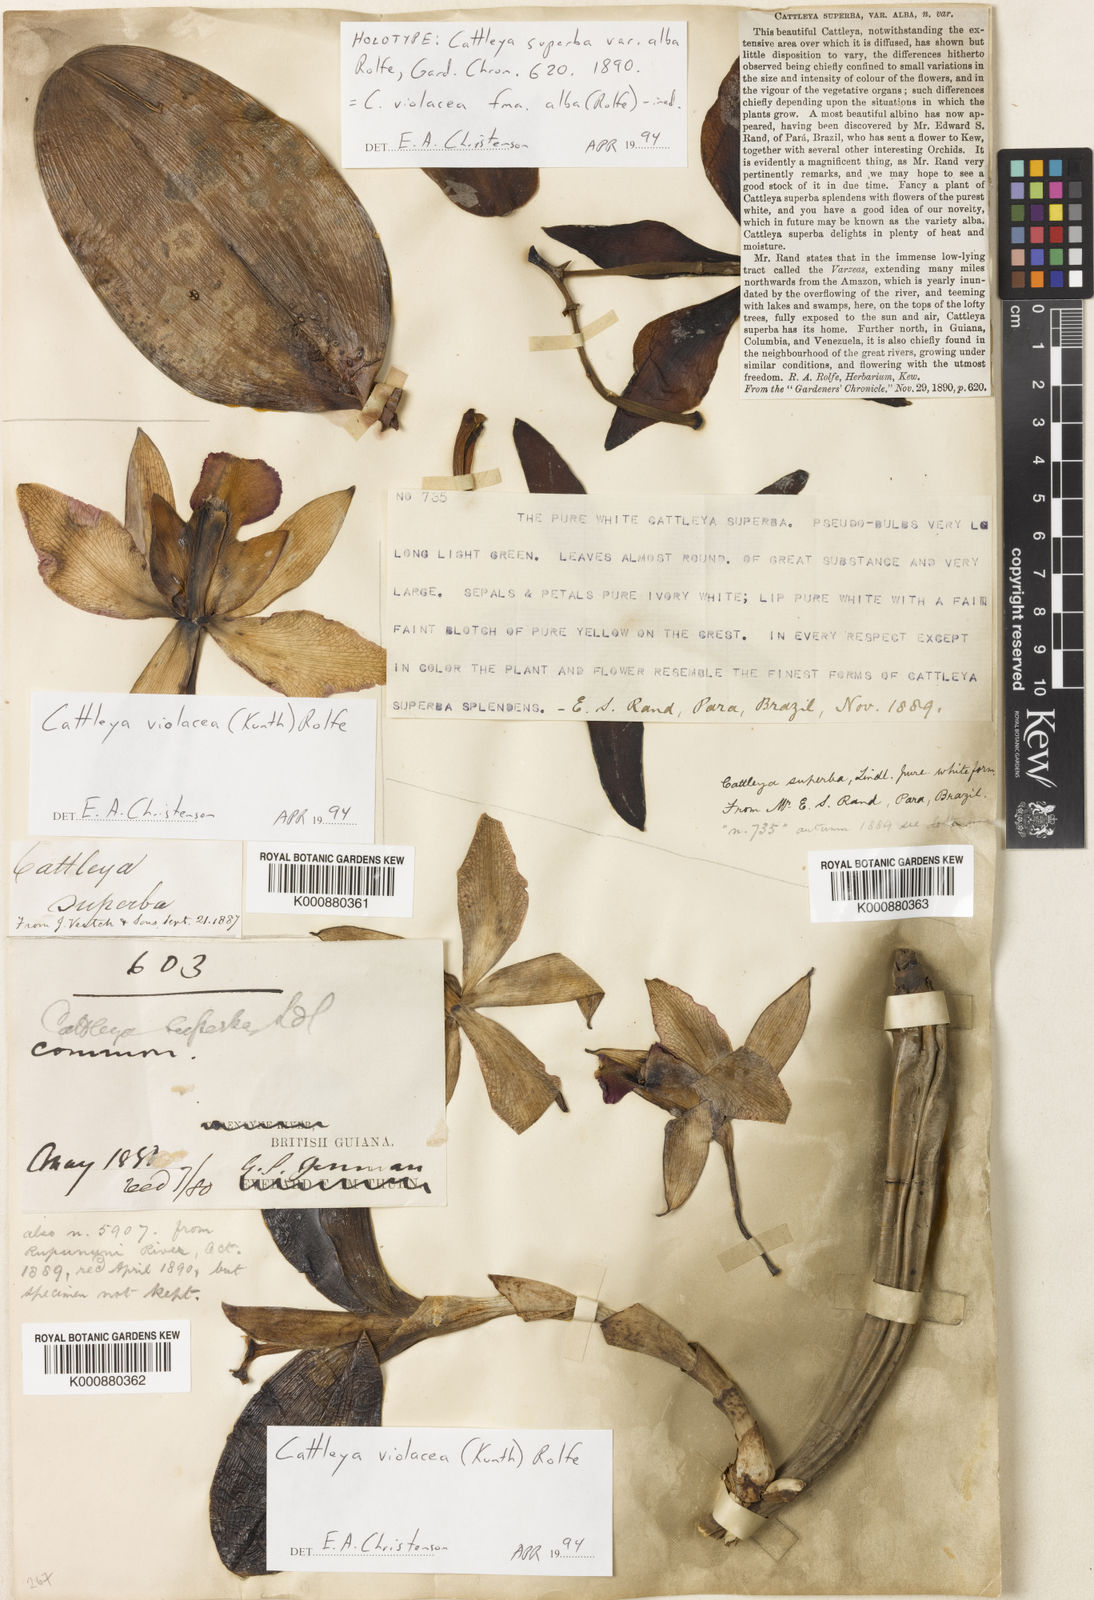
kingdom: Plantae
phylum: Tracheophyta
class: Liliopsida
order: Asparagales
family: Orchidaceae
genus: Cattleya
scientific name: Cattleya
